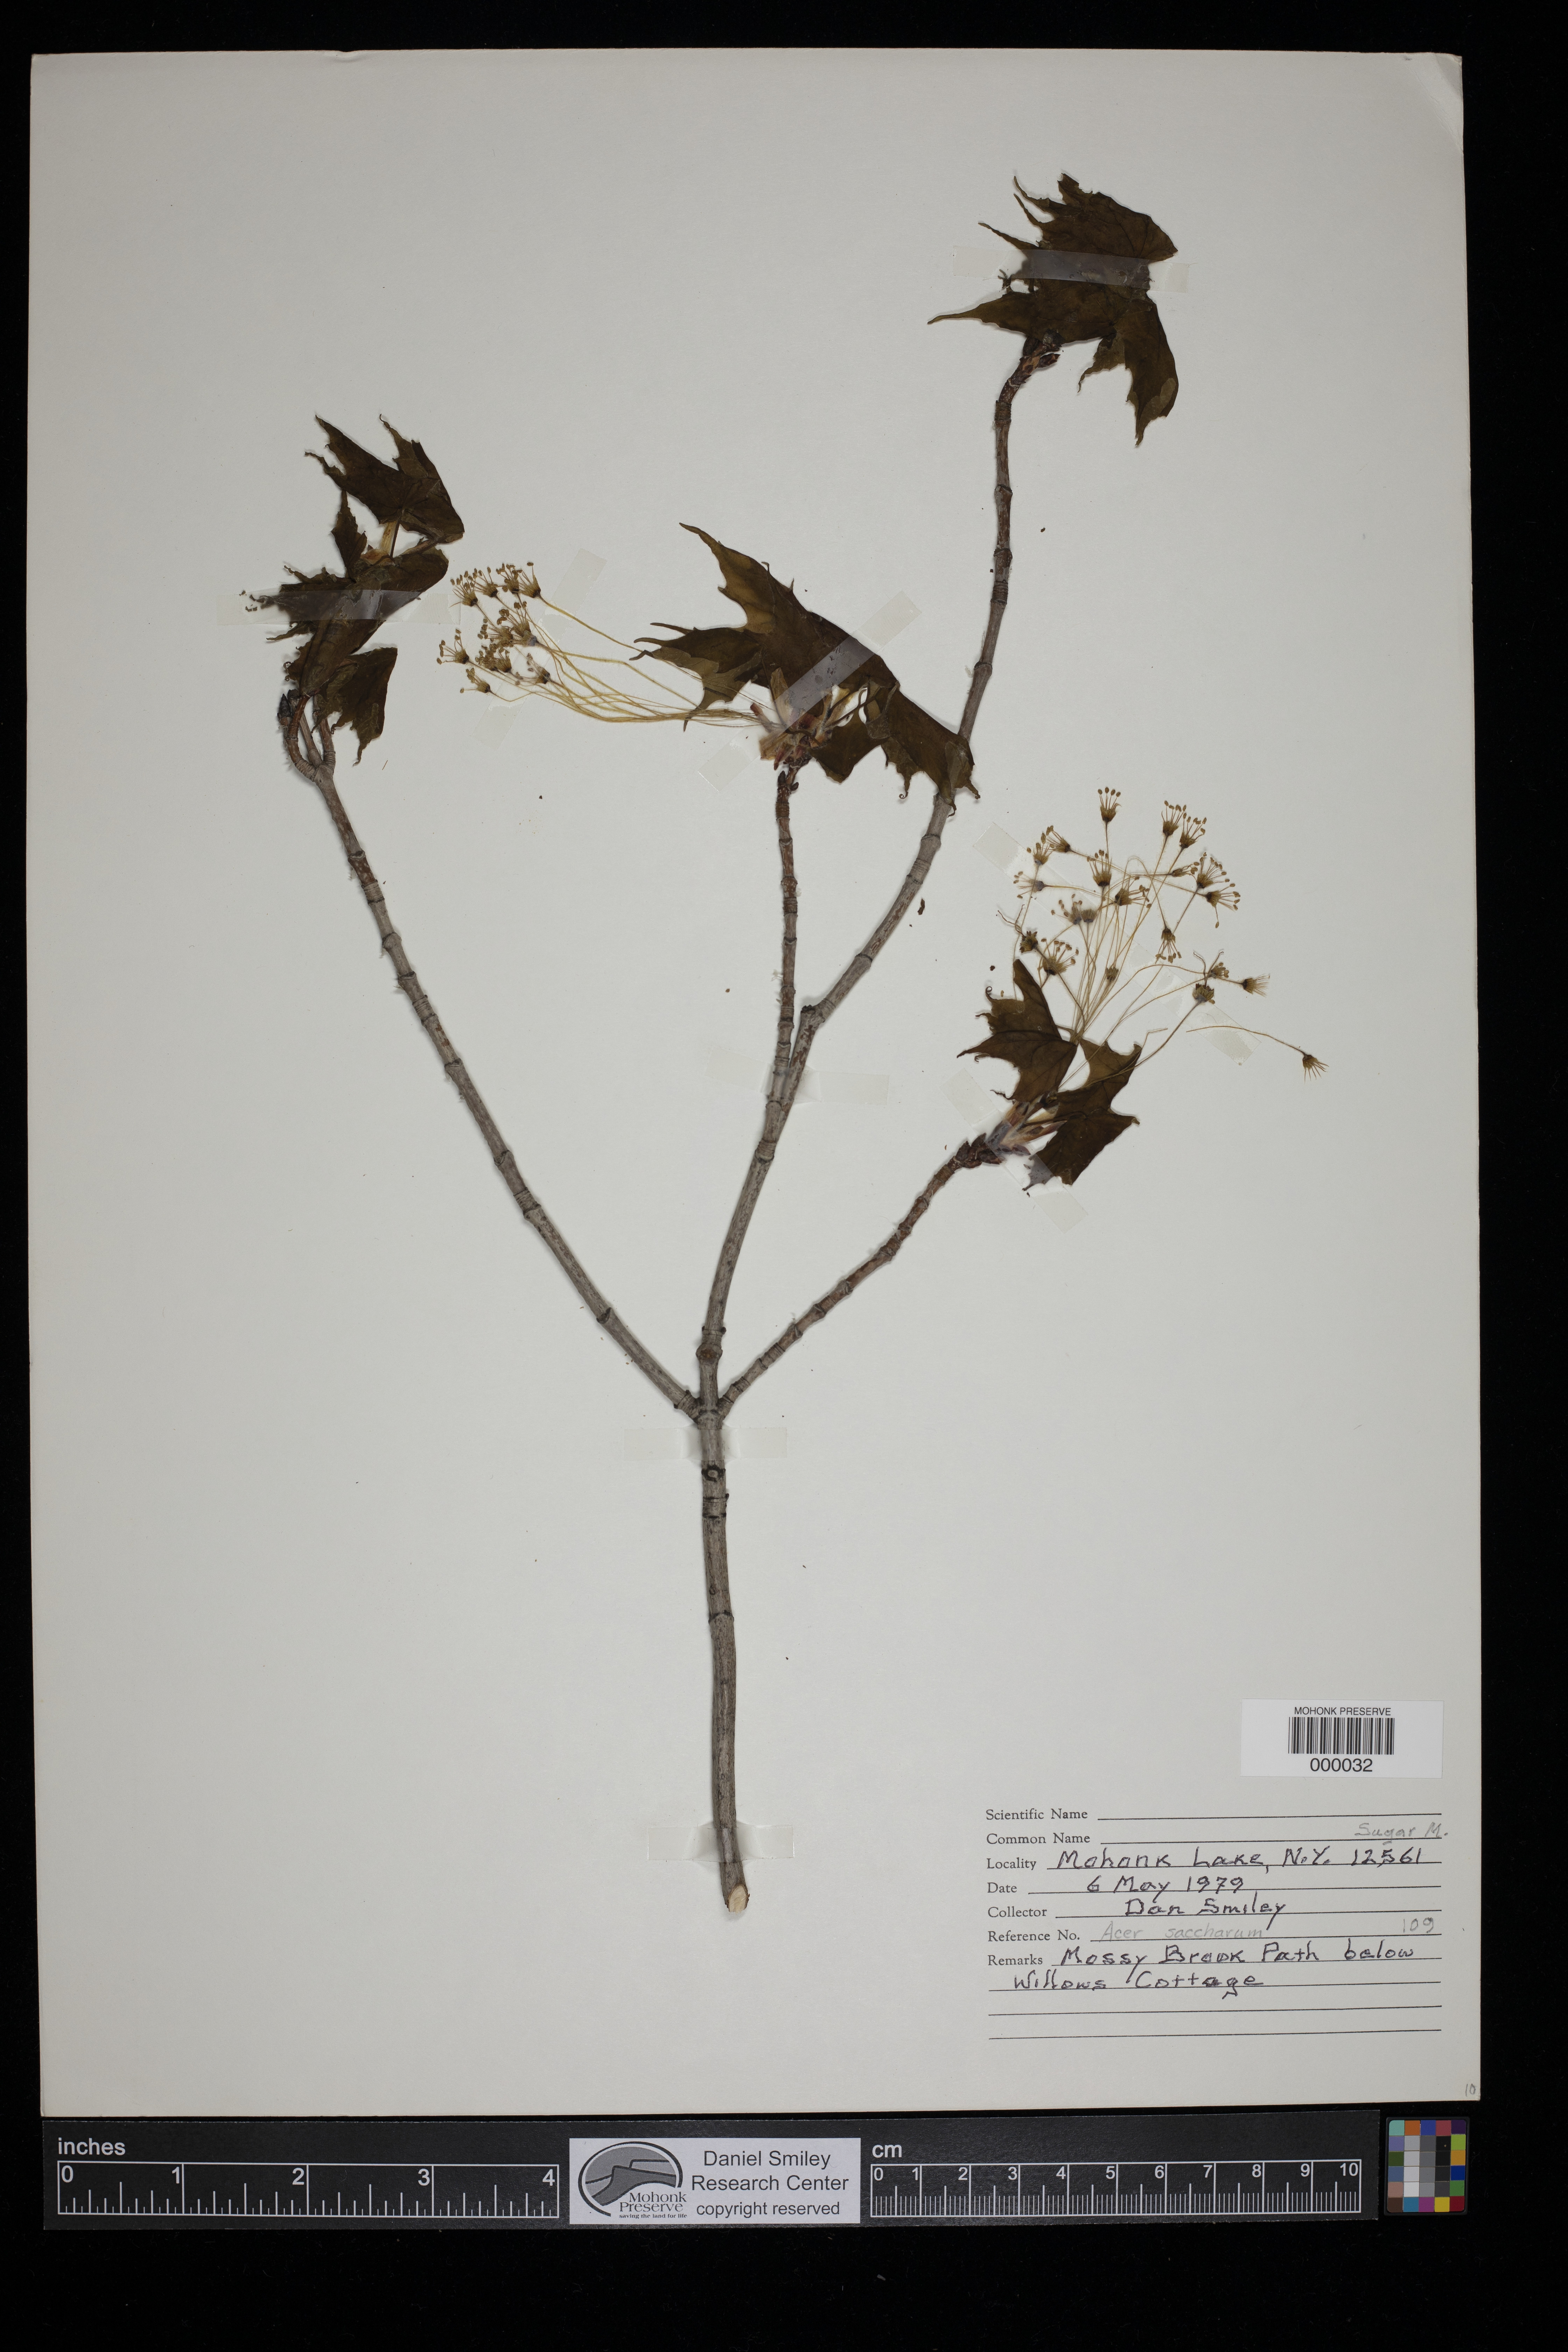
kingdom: Plantae
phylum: Tracheophyta
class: Magnoliopsida
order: Sapindales
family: Sapindaceae
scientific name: Sapindaceae
